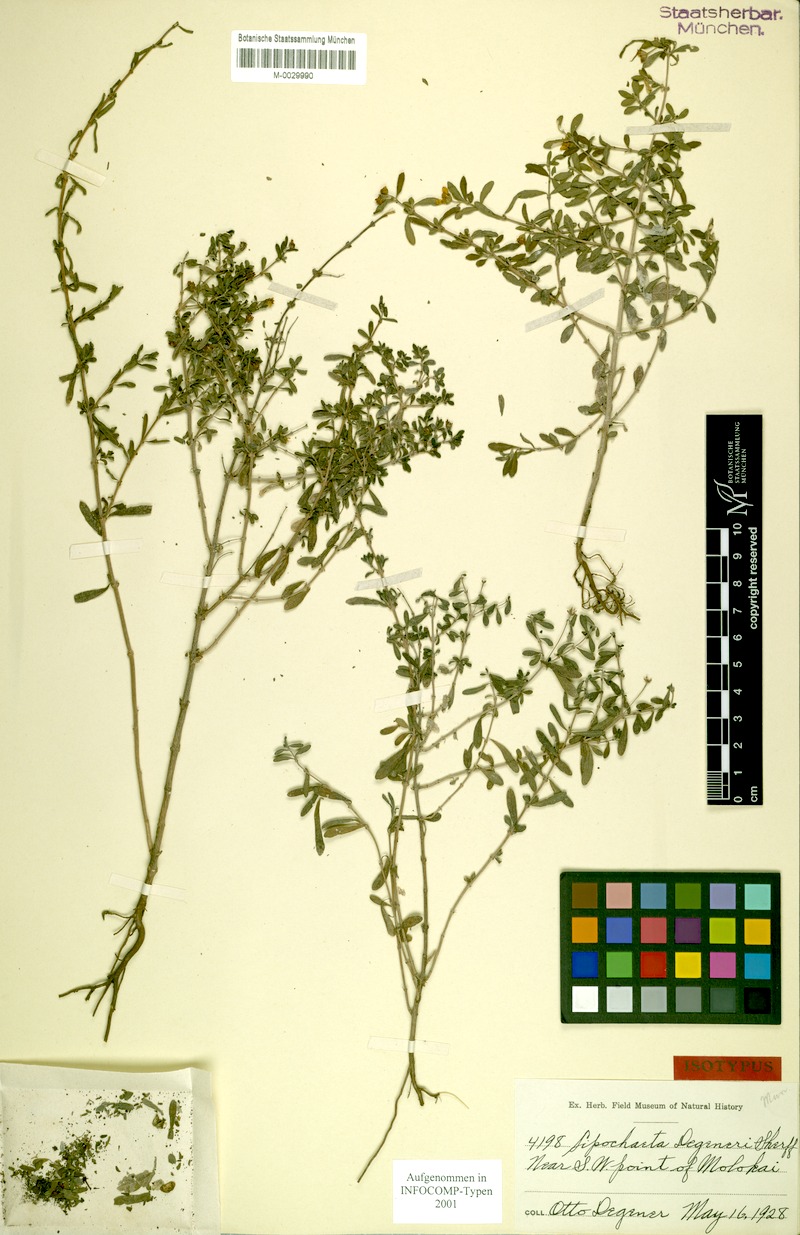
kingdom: Plantae
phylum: Tracheophyta
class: Magnoliopsida
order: Asterales
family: Asteraceae
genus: Lipochaeta
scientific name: Lipochaeta degeneri
